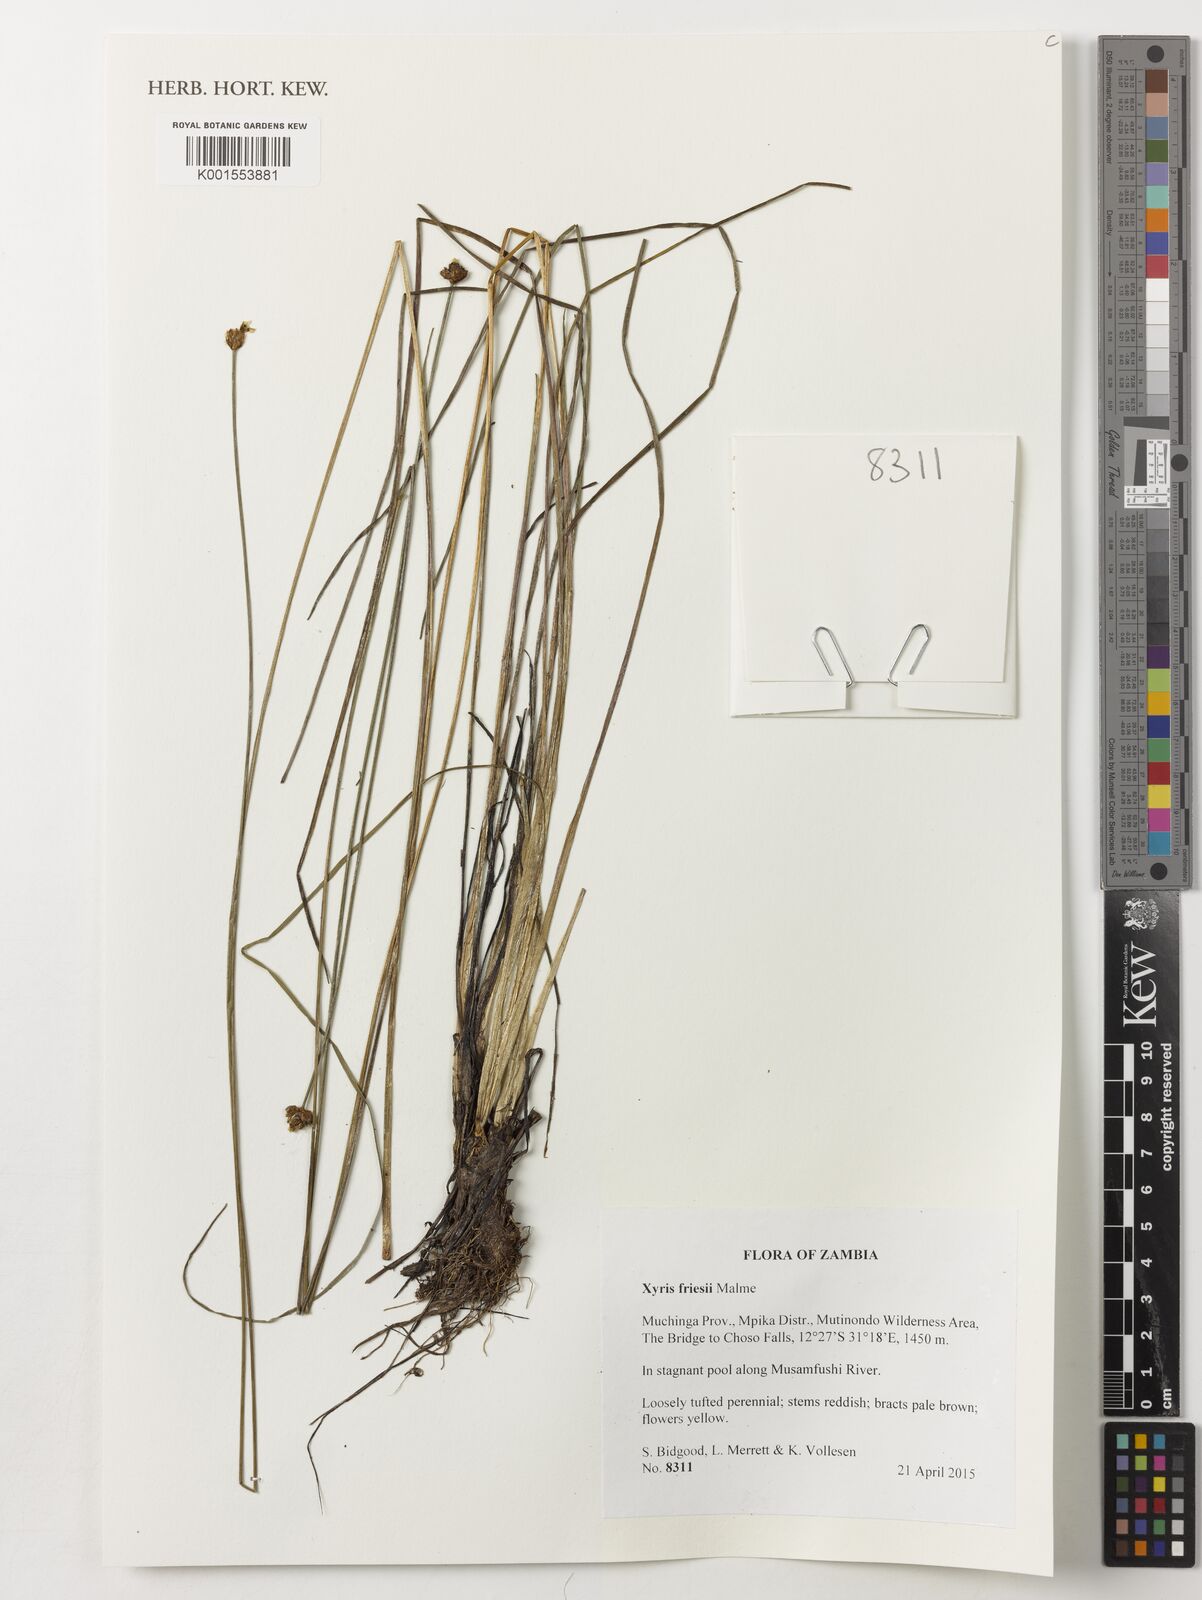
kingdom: Plantae
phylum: Tracheophyta
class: Liliopsida
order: Poales
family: Xyridaceae
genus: Xyris
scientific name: Xyris friesii
